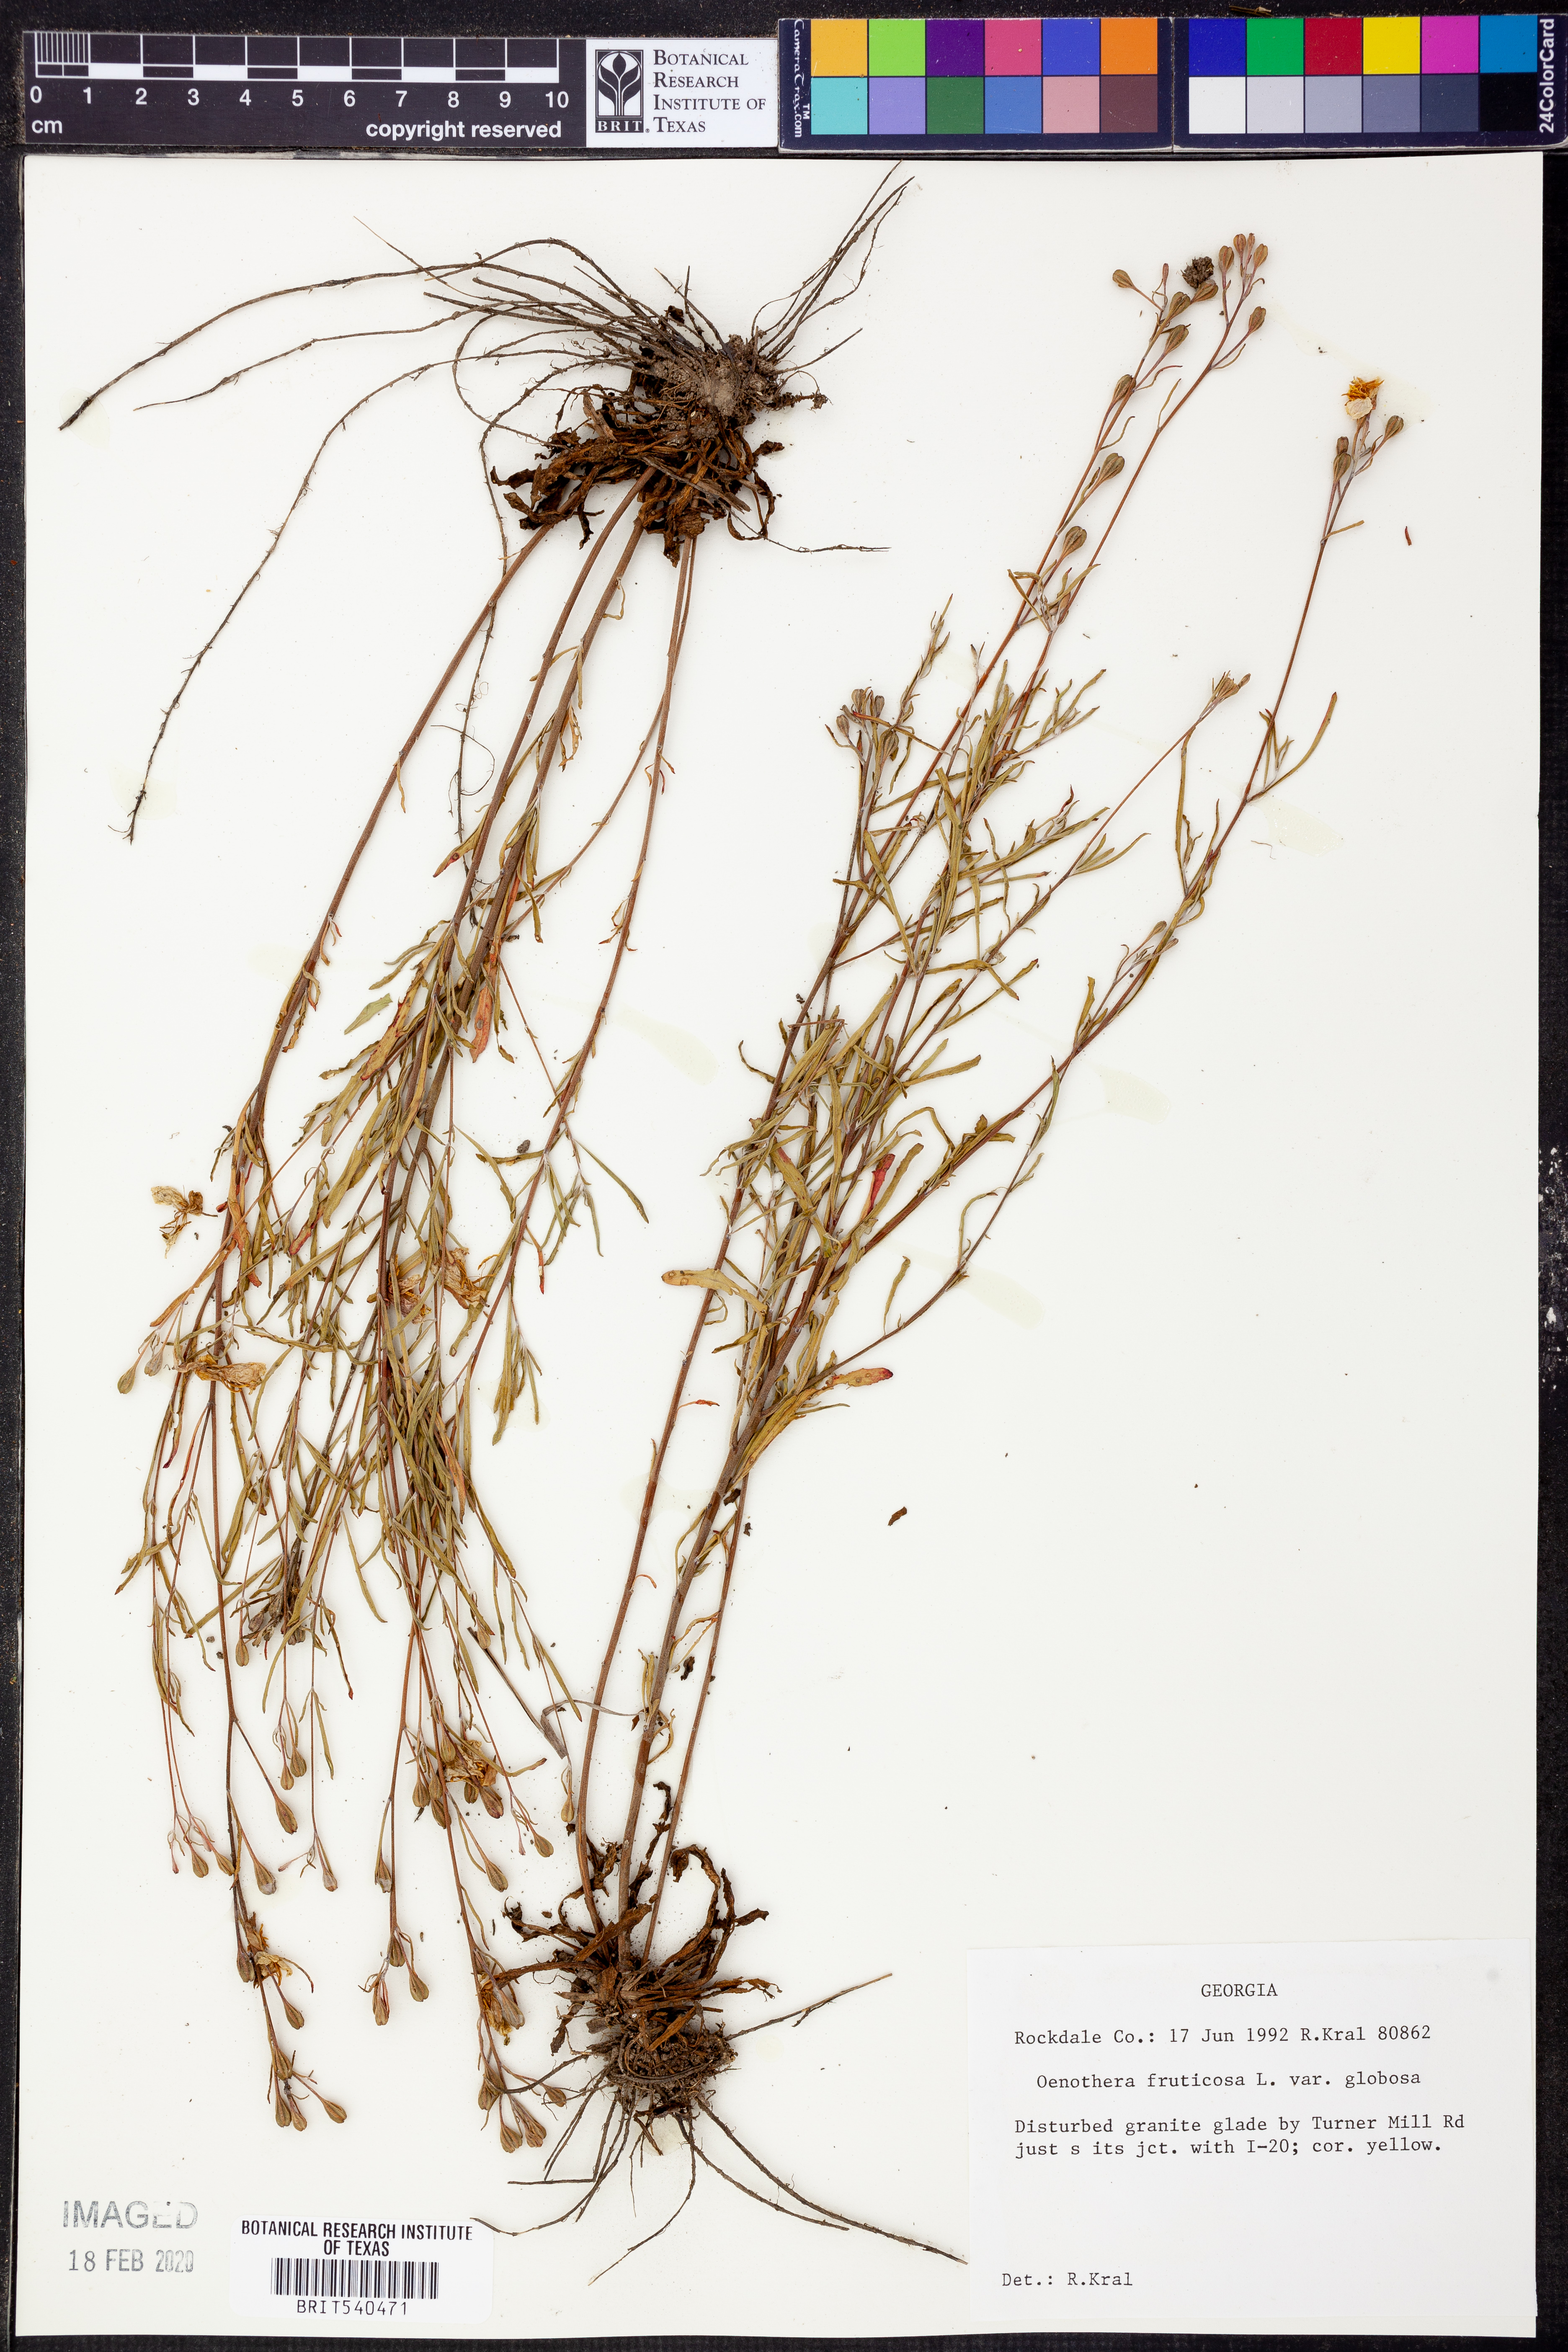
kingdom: Plantae
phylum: Tracheophyta
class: Magnoliopsida
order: Myrtales
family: Onagraceae
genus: Oenothera
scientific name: Oenothera fruticosa
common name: Southern sundrops
